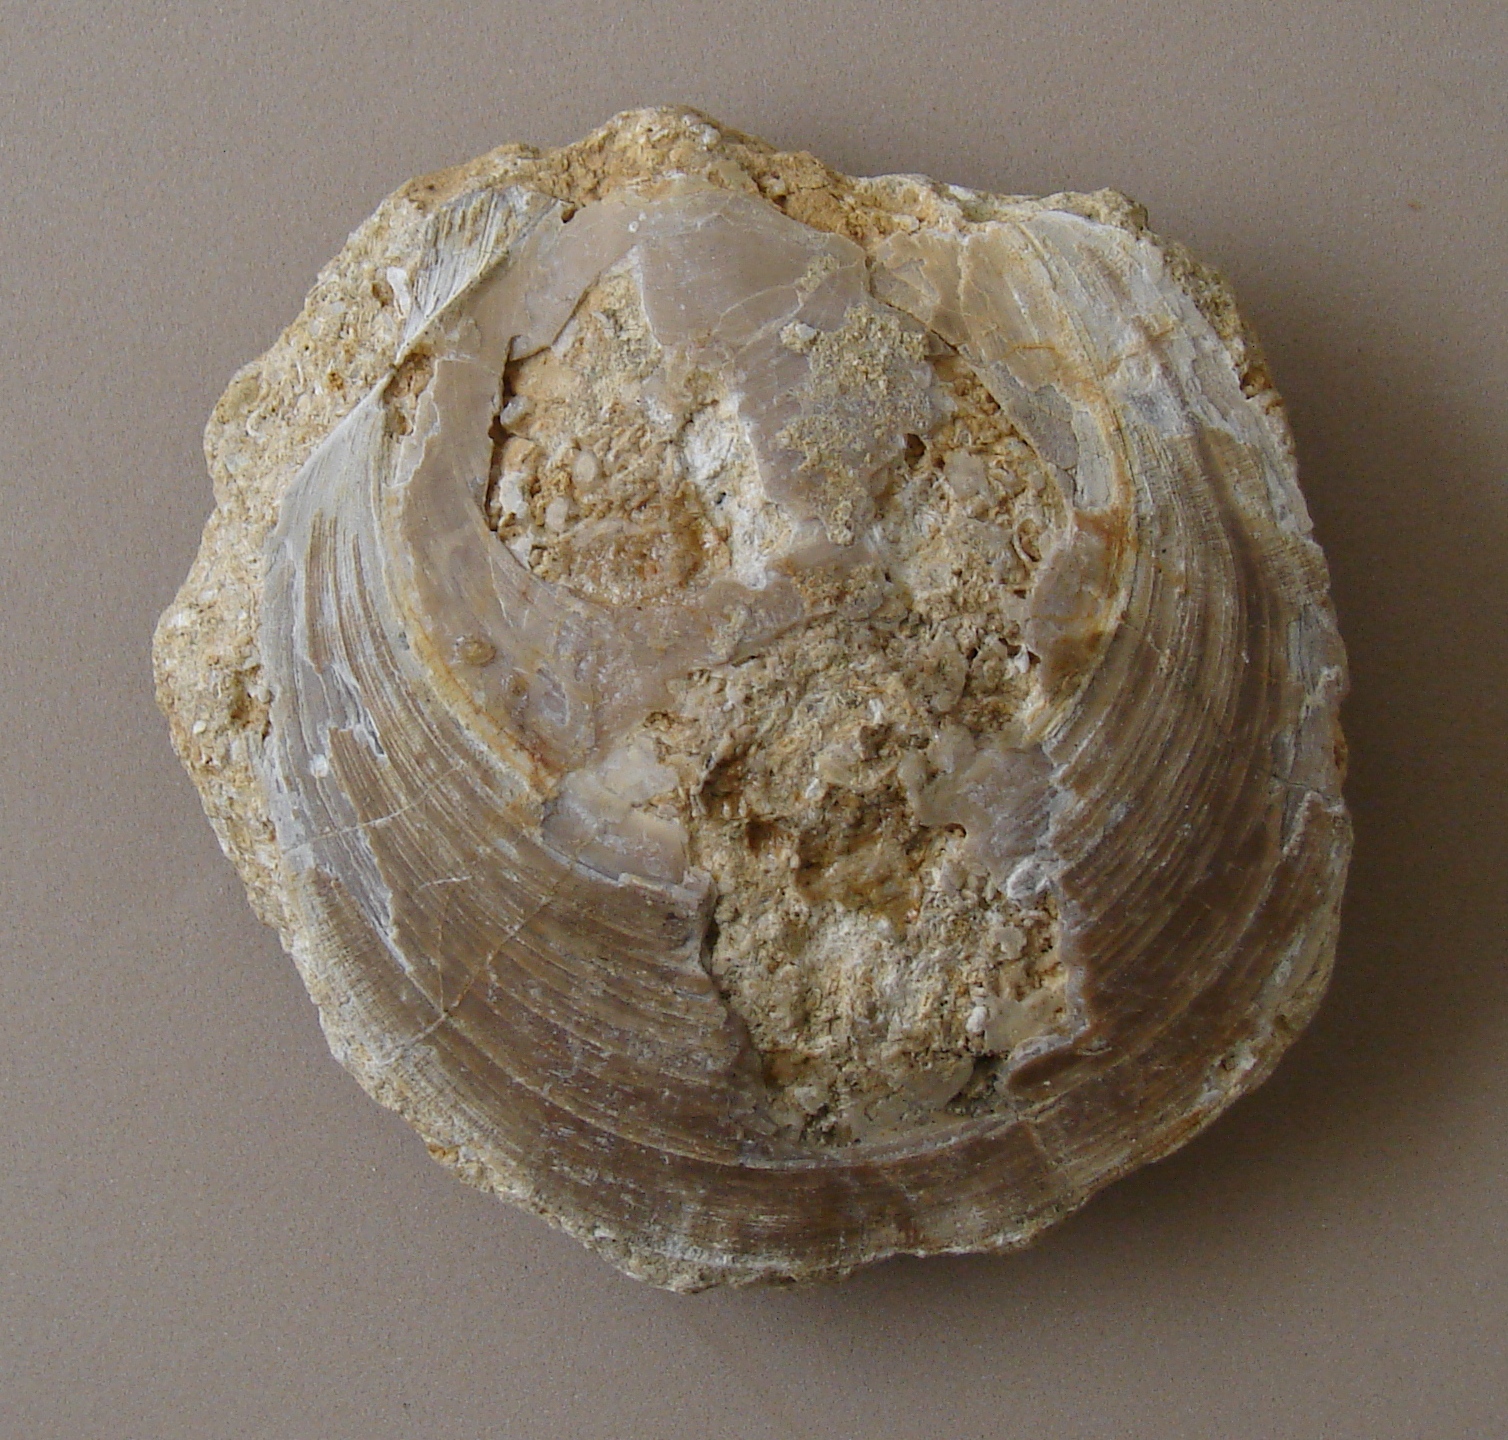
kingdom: Animalia
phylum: Mollusca
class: Bivalvia
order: Pectinida
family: Entoliidae
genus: Entolium
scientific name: Entolium corneolum
